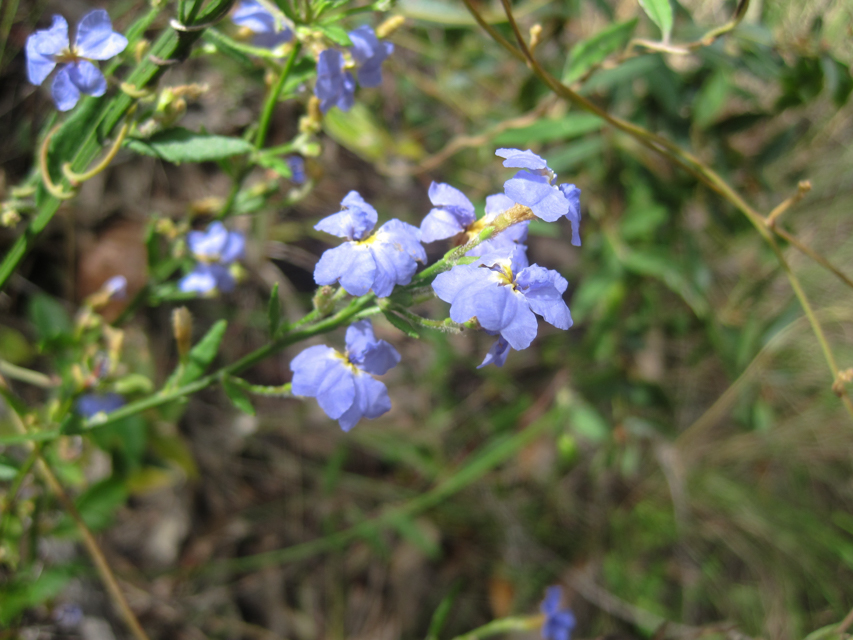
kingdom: Plantae
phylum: Tracheophyta
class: Magnoliopsida
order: Asterales
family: Goodeniaceae
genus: Dampiera
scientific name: Dampiera stricta
